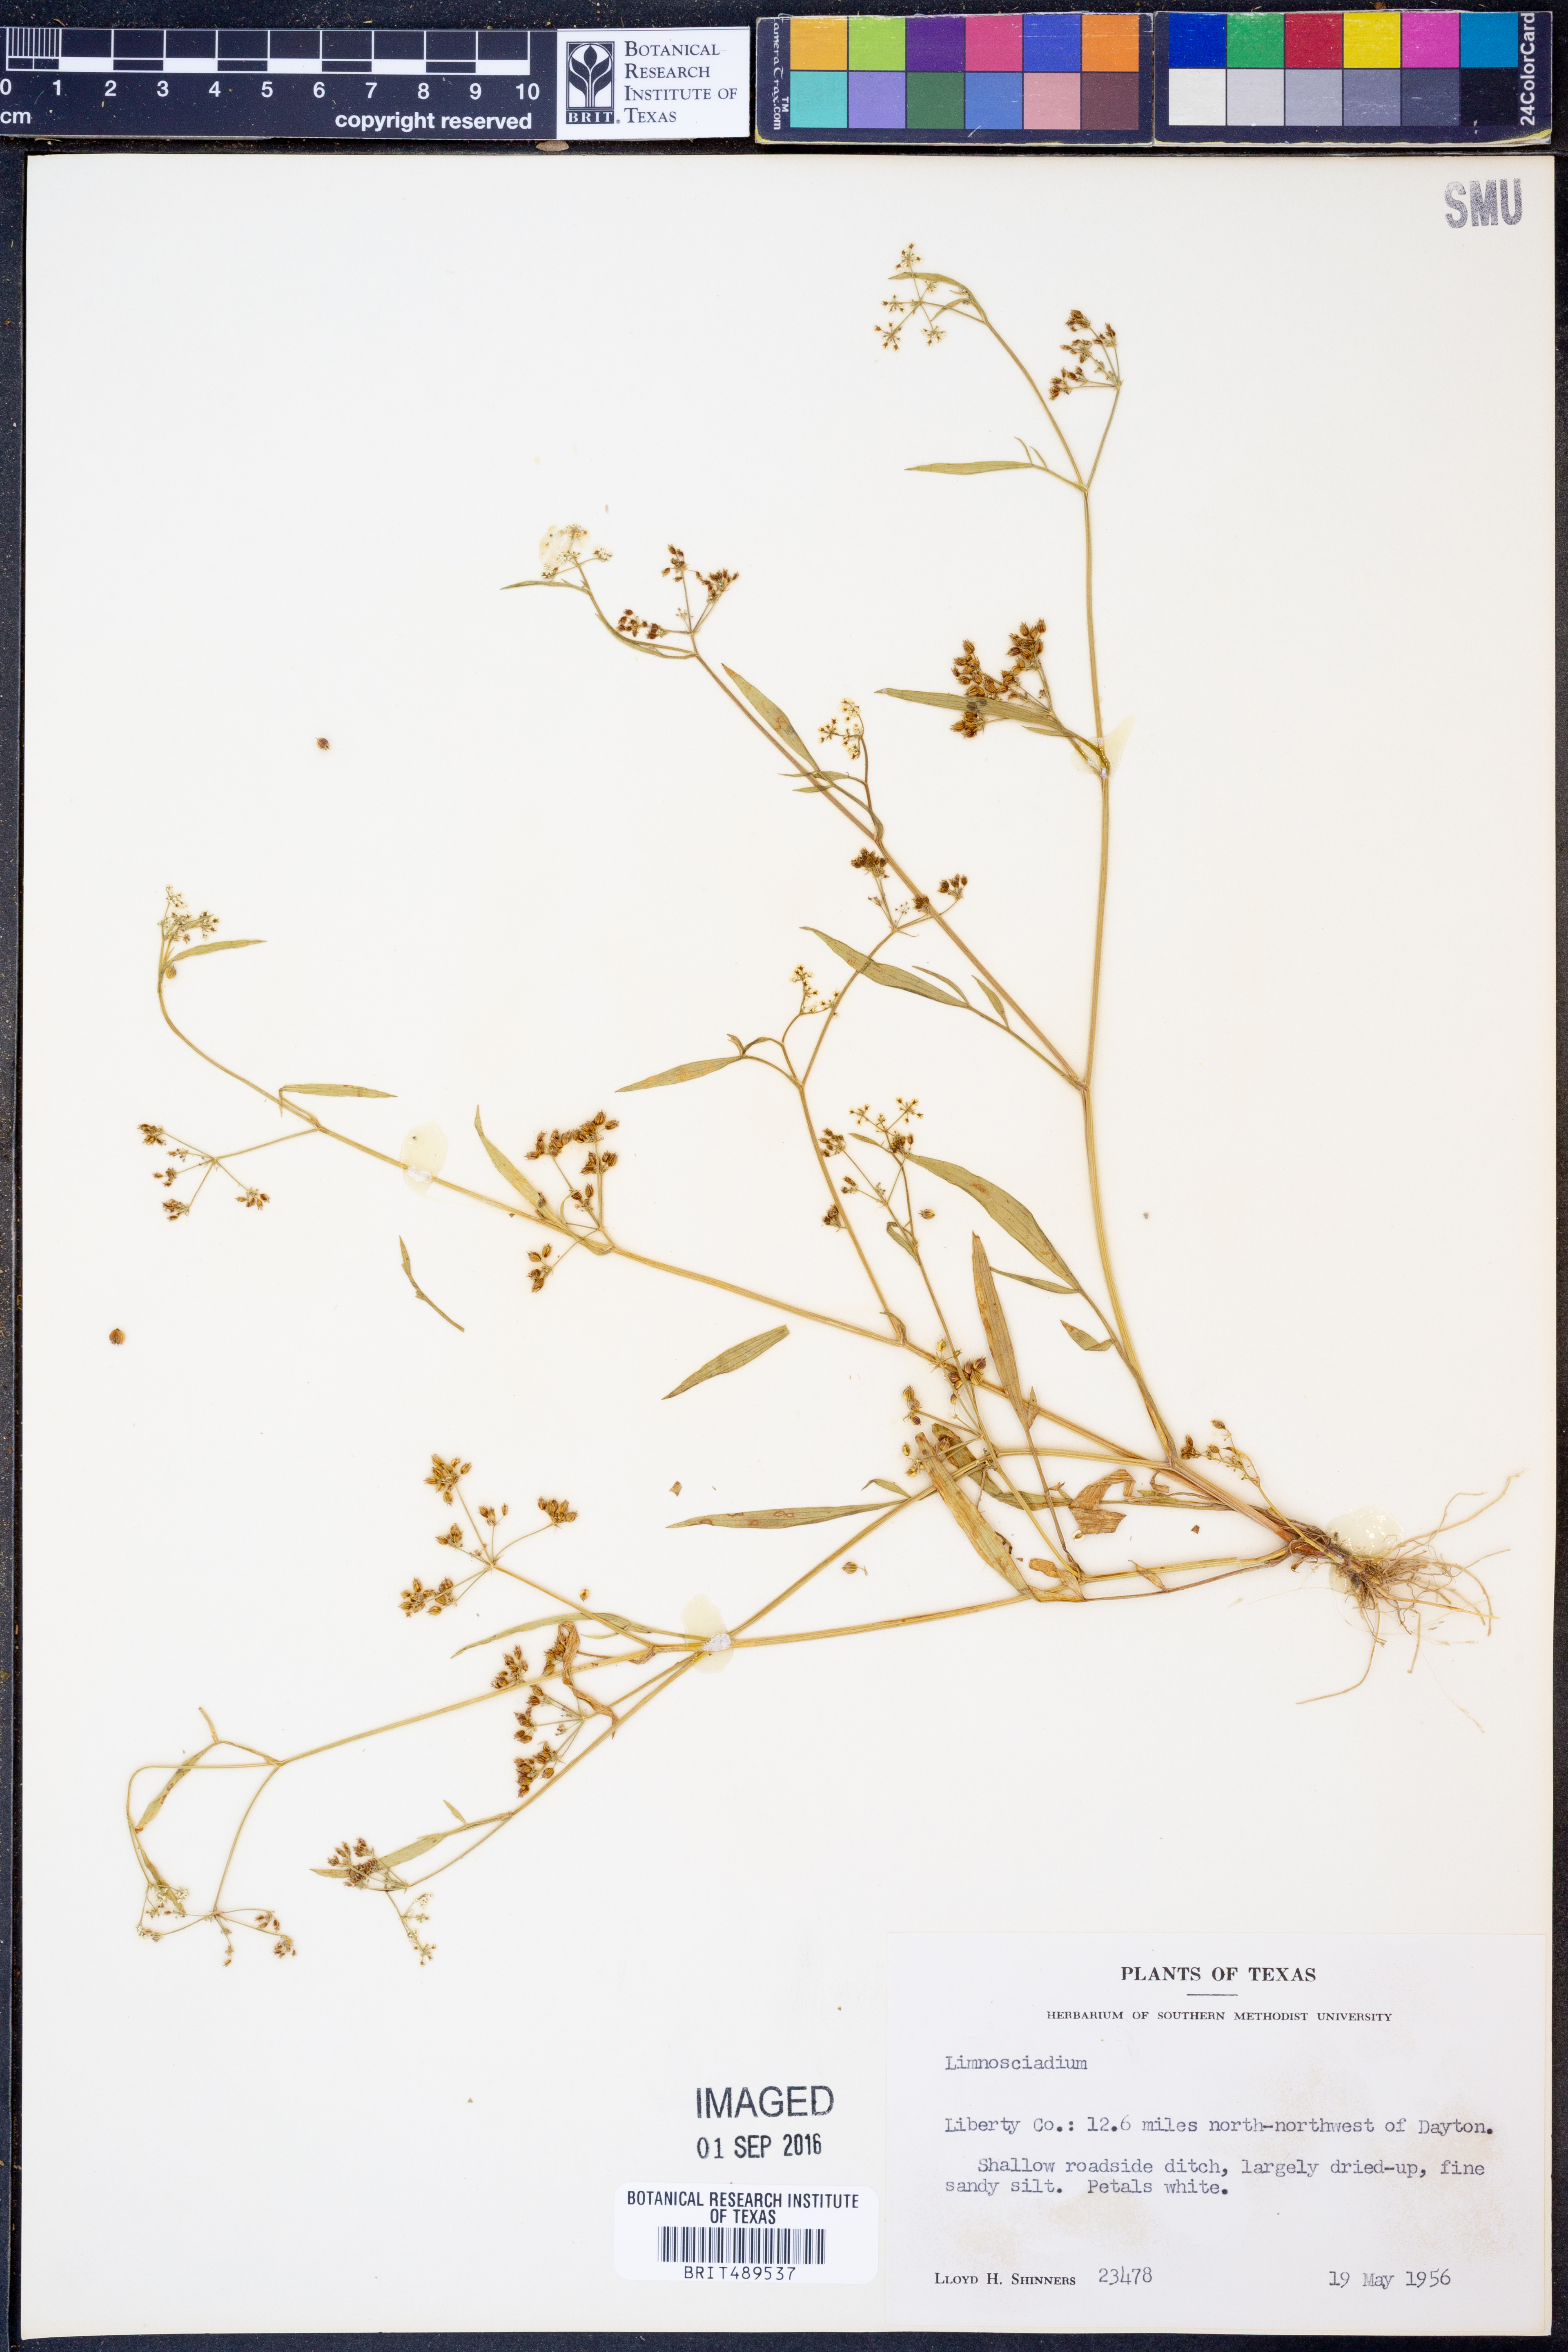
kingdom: Plantae
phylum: Tracheophyta
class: Magnoliopsida
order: Apiales
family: Apiaceae
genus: Limnosciadium
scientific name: Limnosciadium
